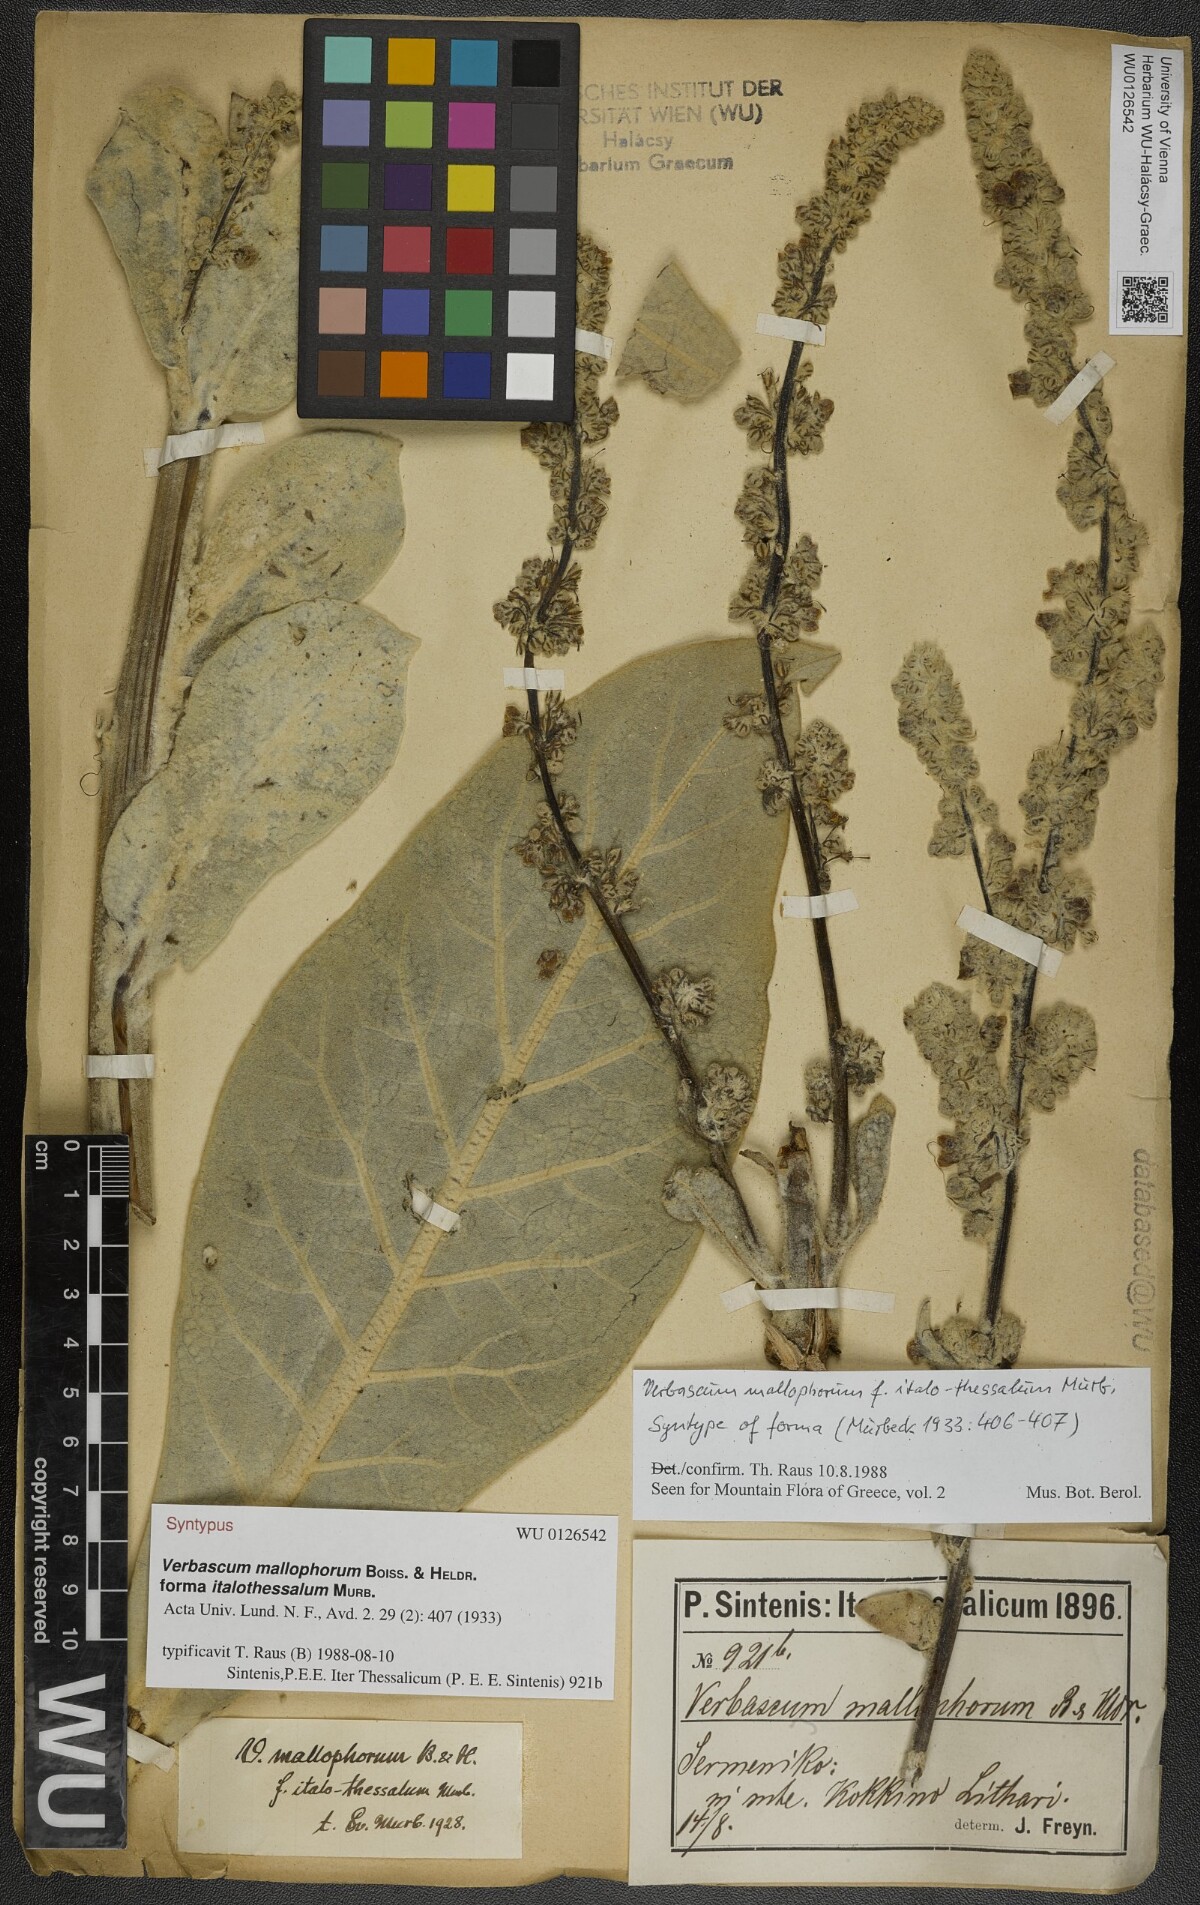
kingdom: Plantae
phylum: Tracheophyta
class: Magnoliopsida
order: Lamiales
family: Scrophulariaceae
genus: Verbascum
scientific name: Verbascum mallophorum
